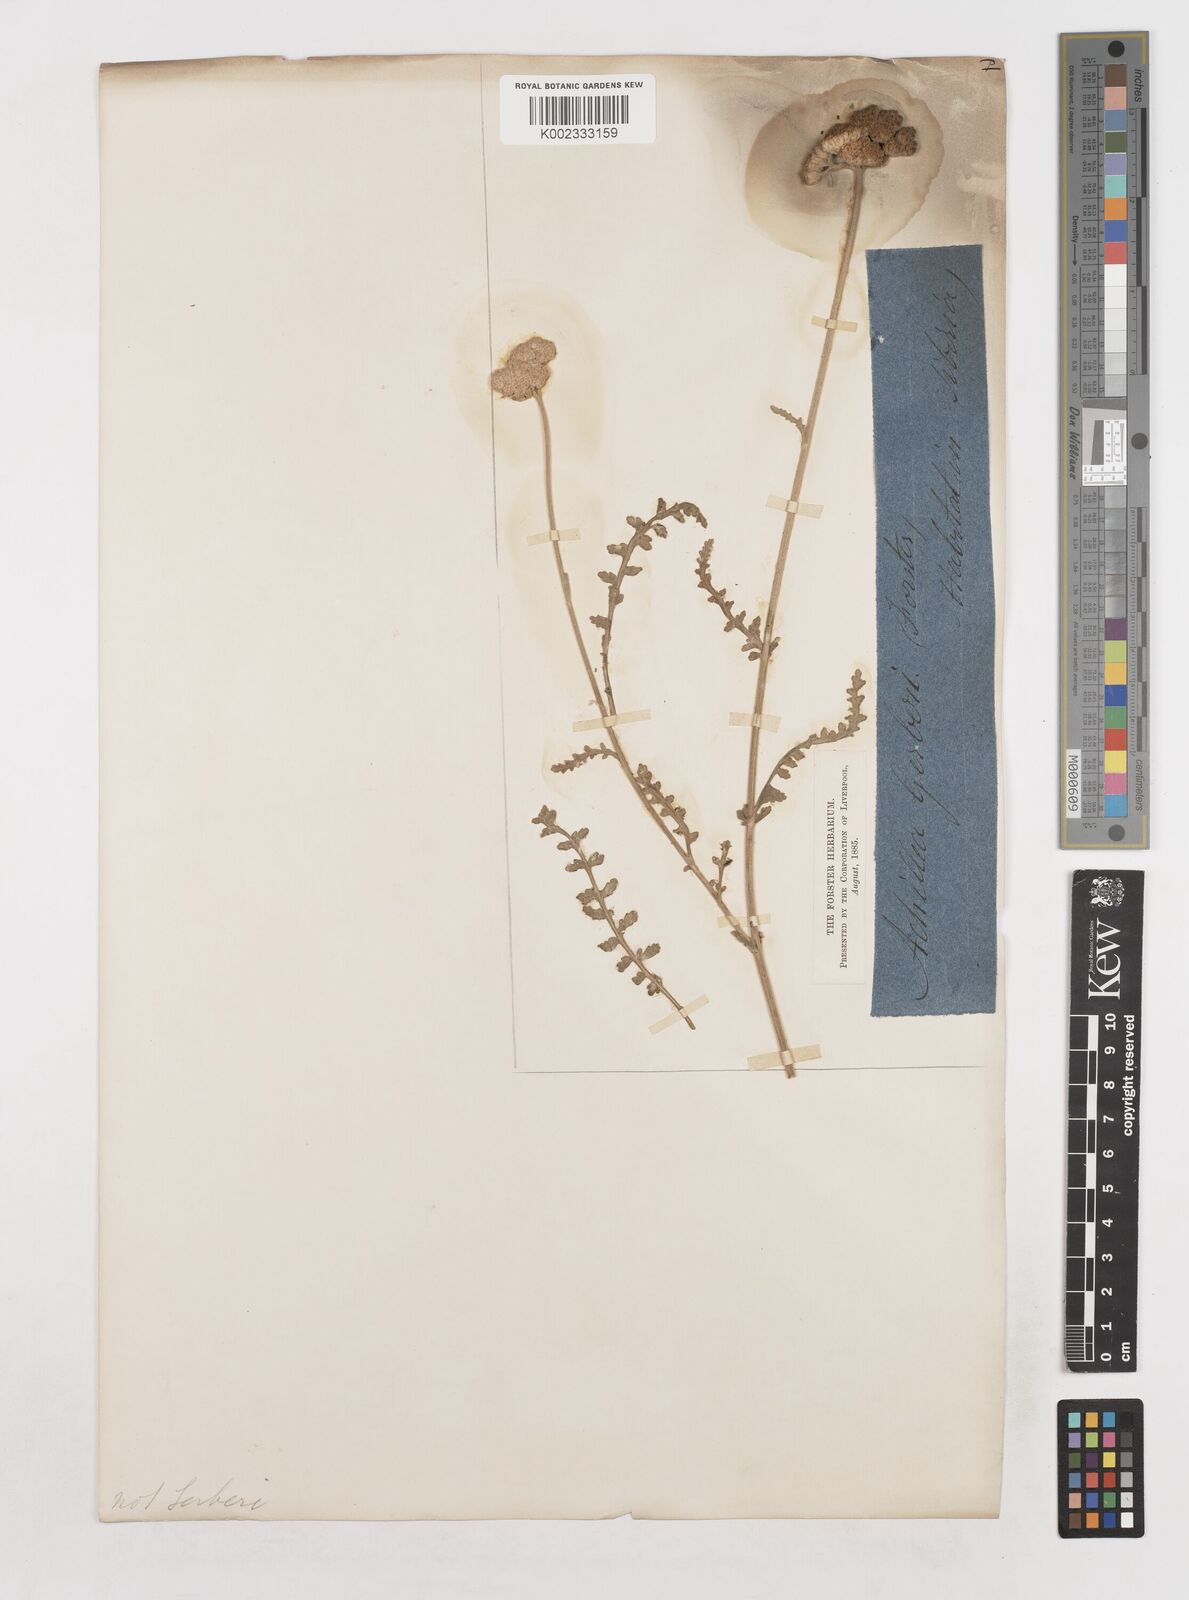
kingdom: Plantae
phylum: Tracheophyta
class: Magnoliopsida
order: Asterales
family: Asteraceae
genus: Achillea
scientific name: Achillea
